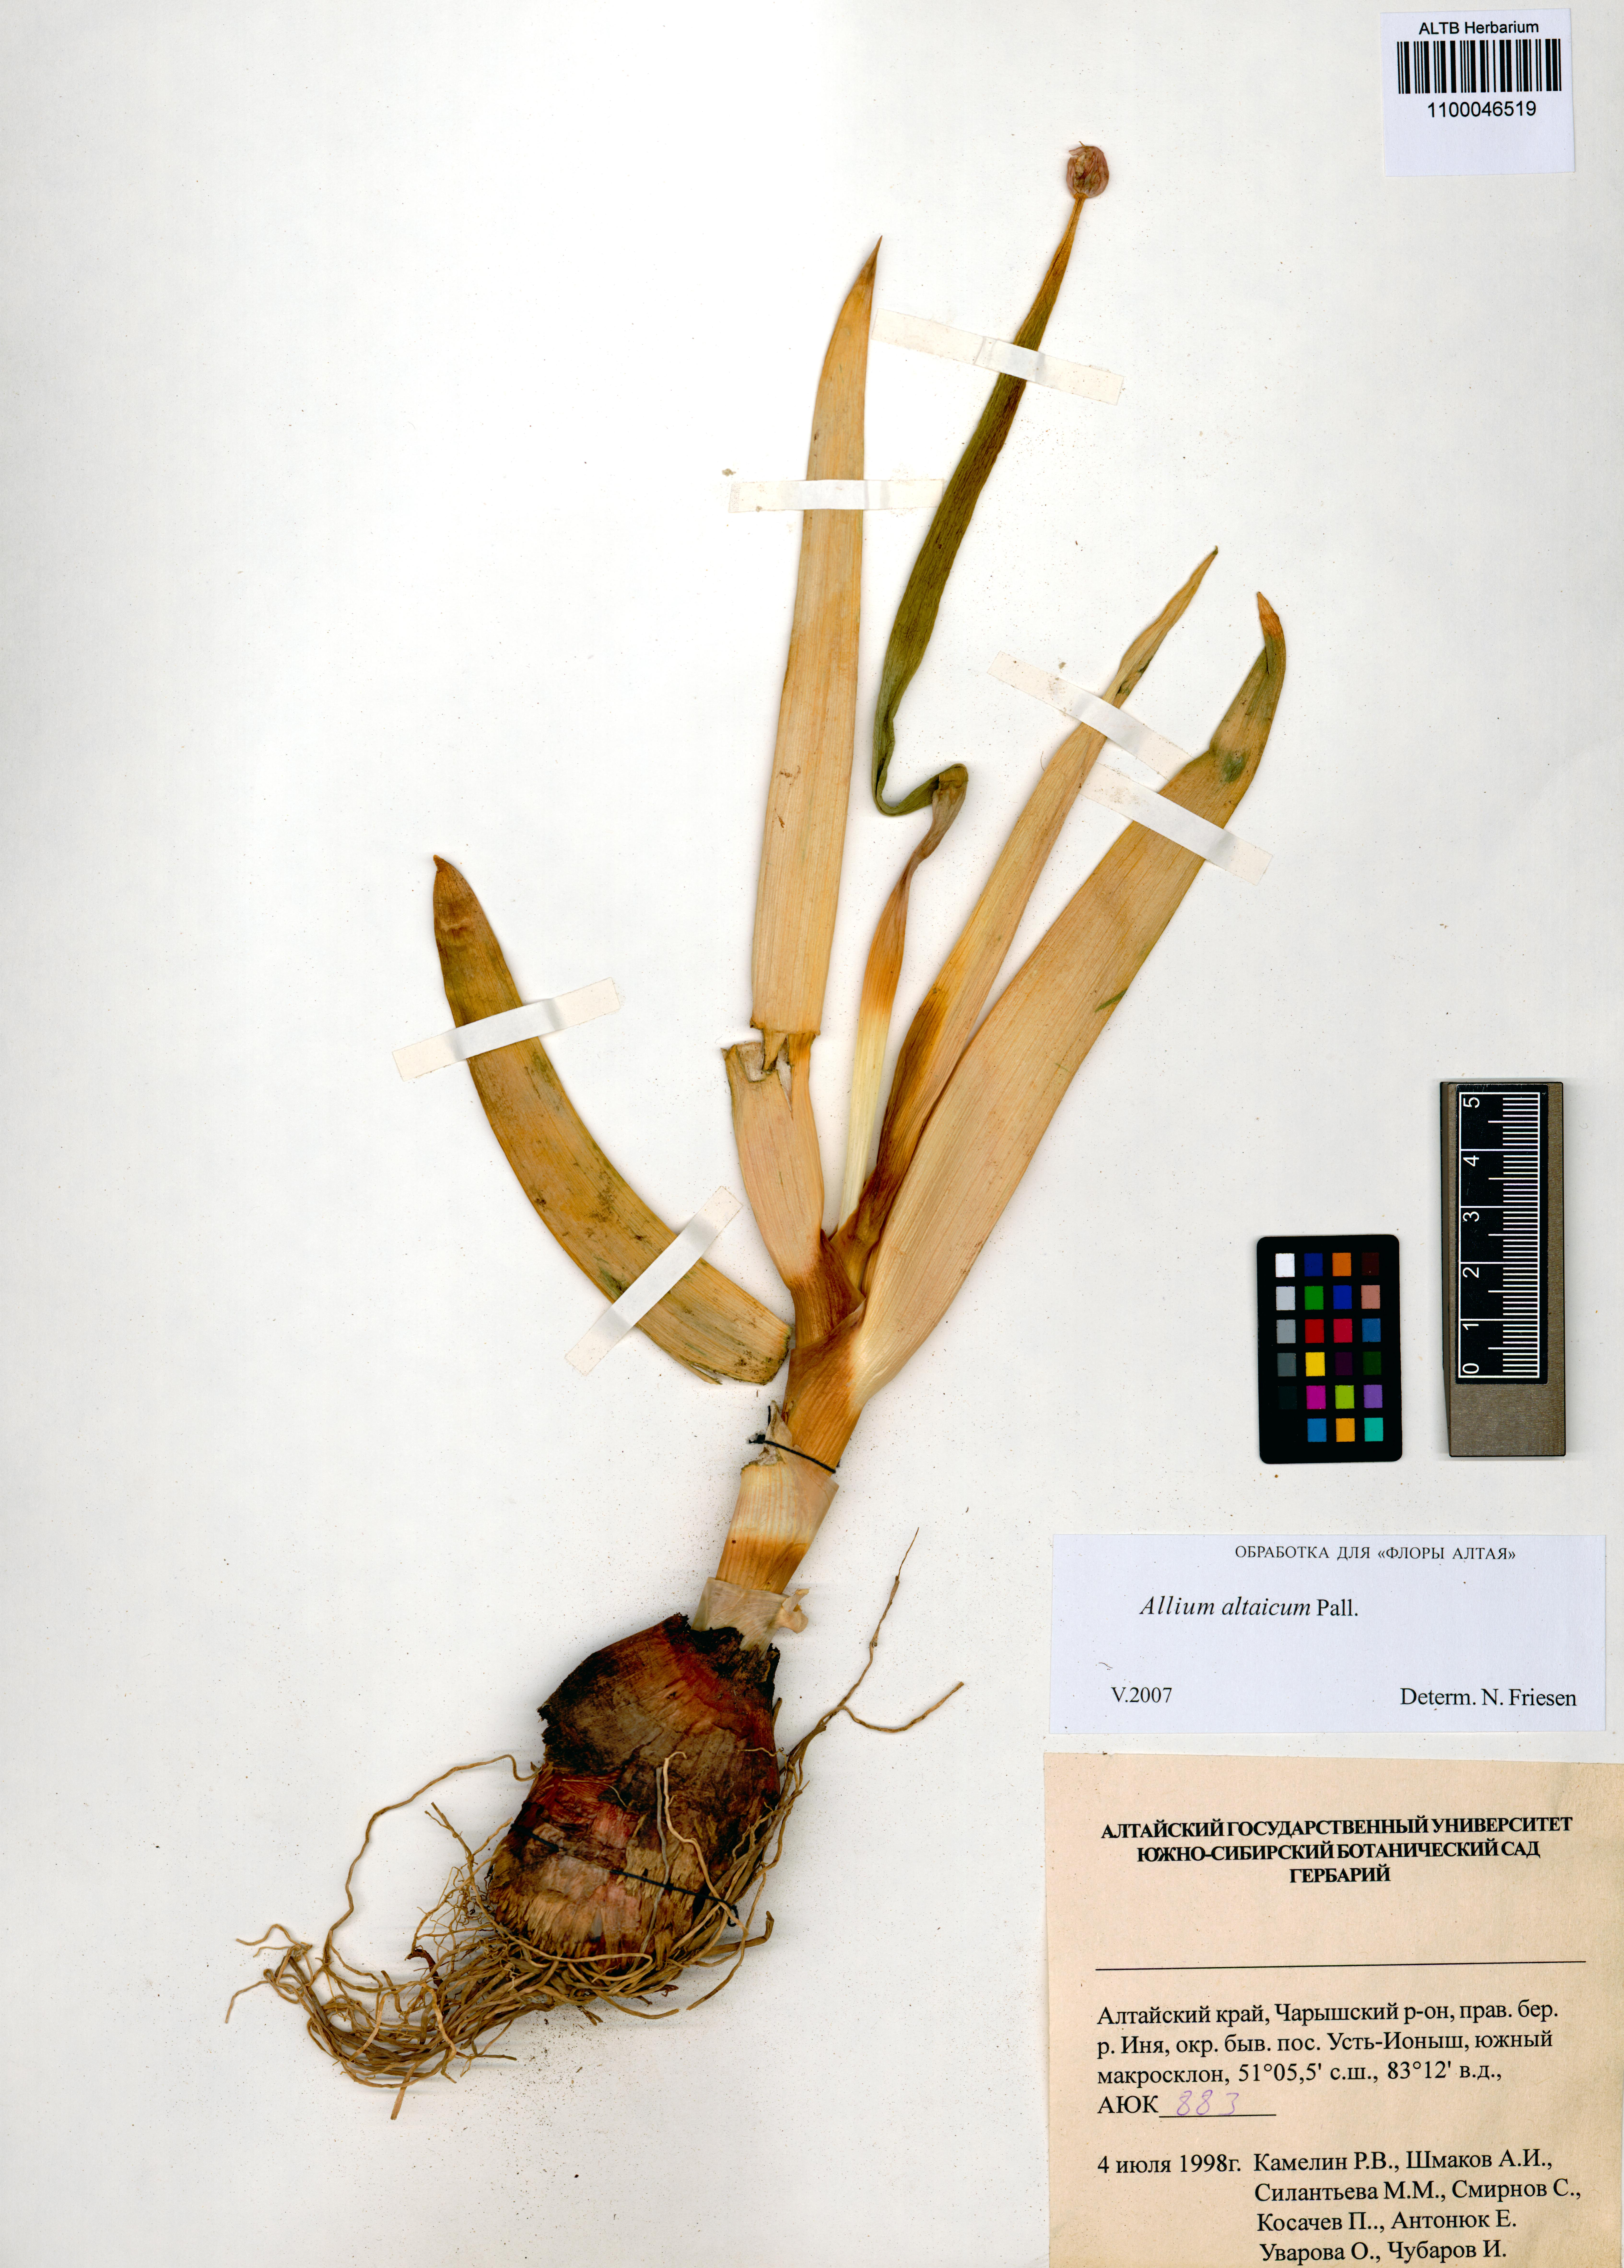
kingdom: Plantae
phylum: Tracheophyta
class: Liliopsida
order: Asparagales
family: Amaryllidaceae
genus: Allium
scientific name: Allium altaicum
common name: Altai onion
